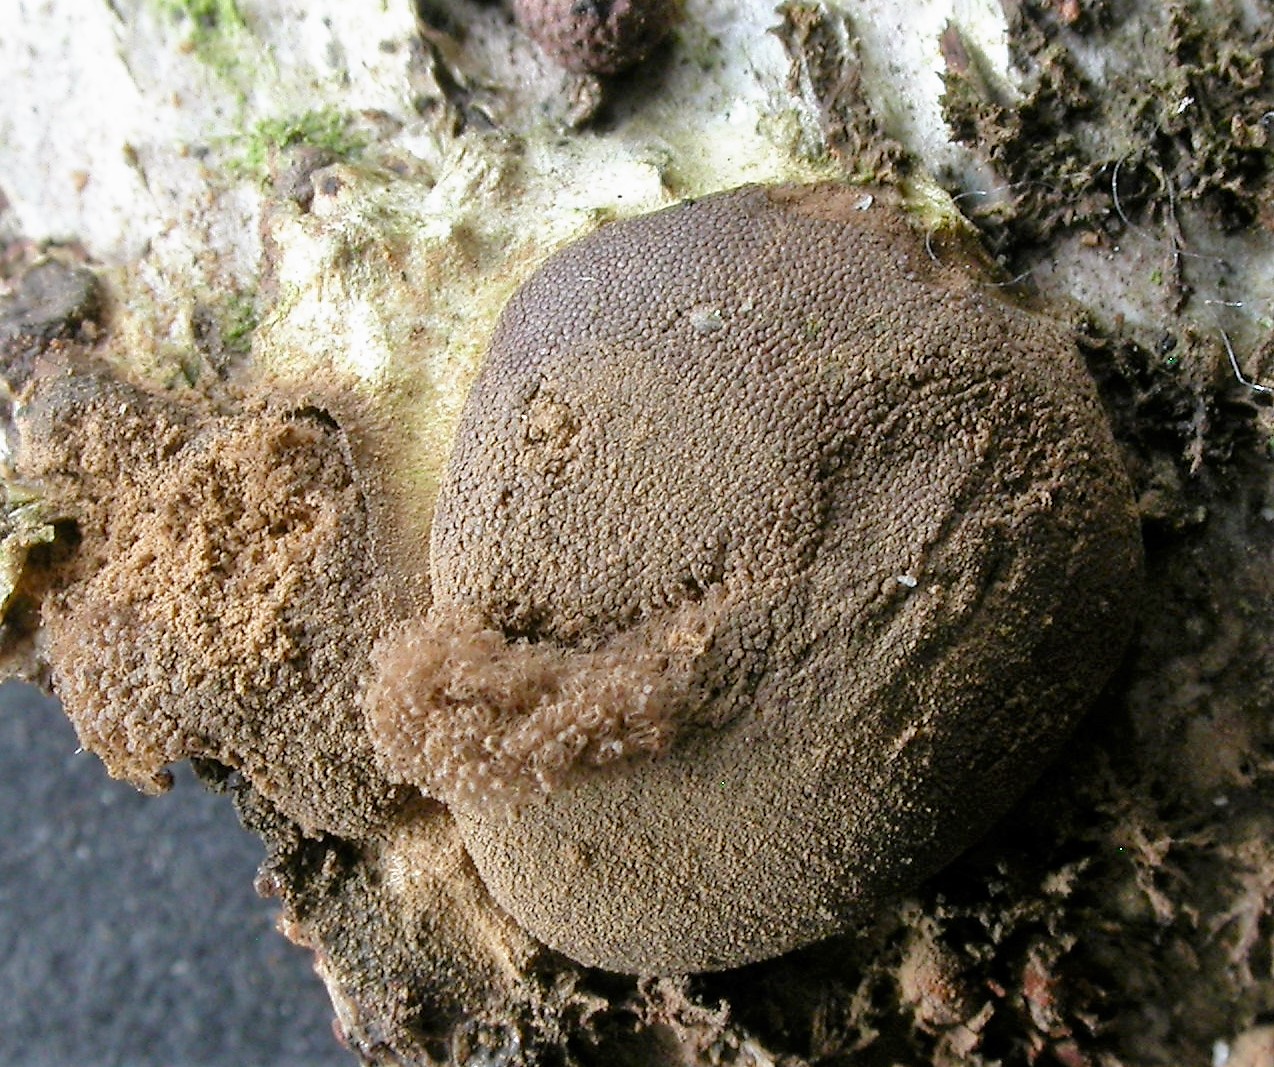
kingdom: Protozoa
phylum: Mycetozoa
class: Myxomycetes
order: Trichiales
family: Dictydiaethaliaceae
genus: Dictydiaethalium
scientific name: Dictydiaethalium plumbeum
